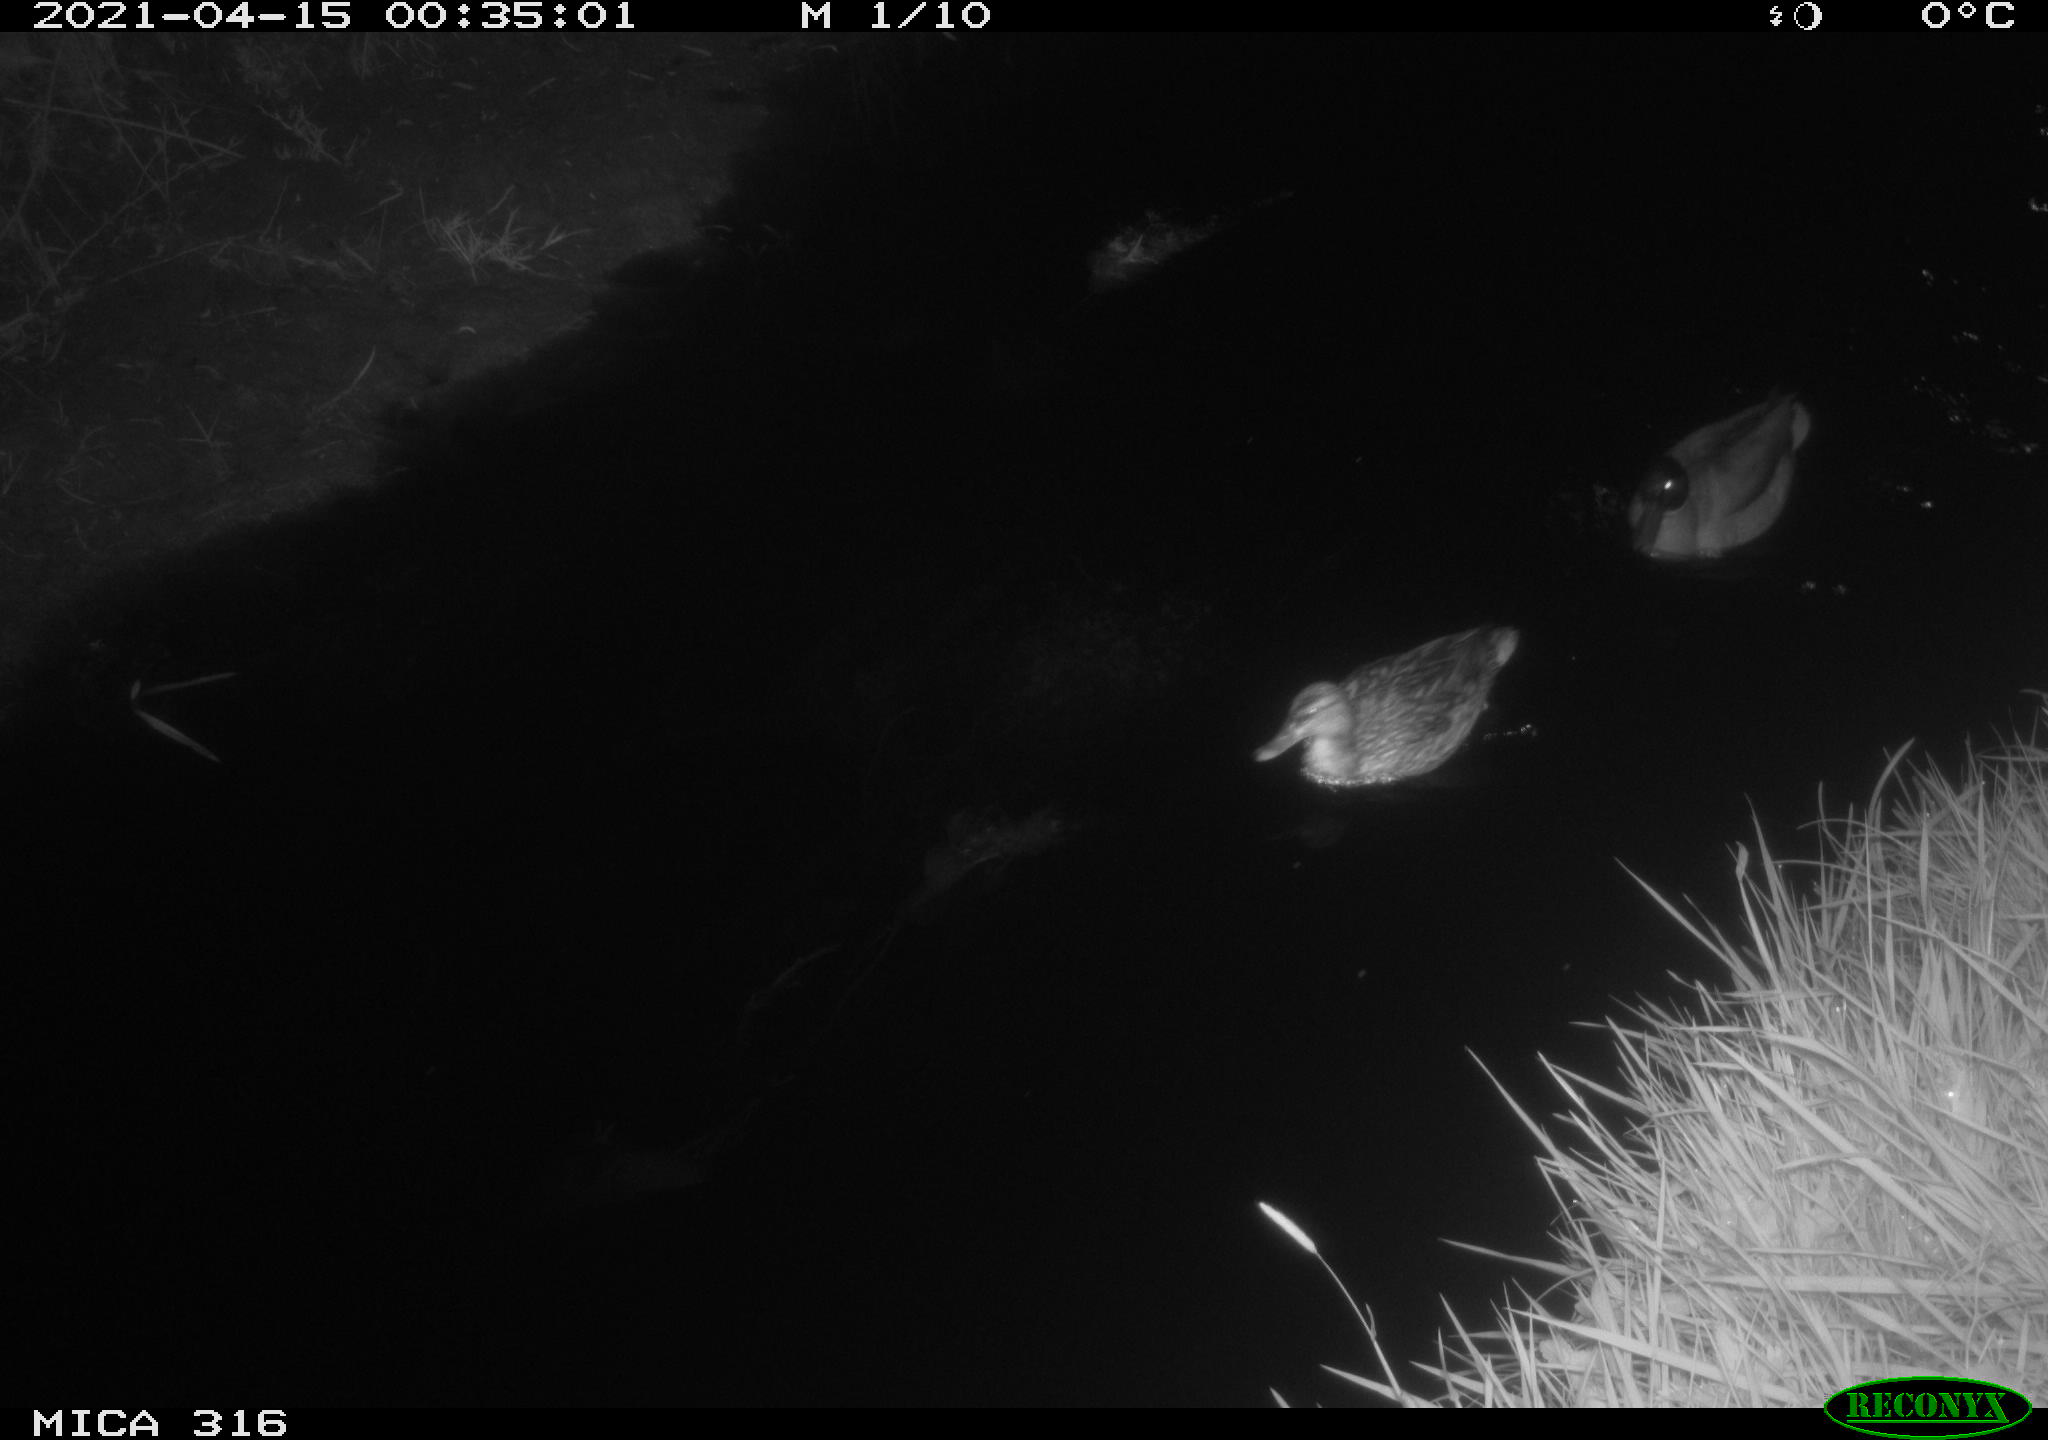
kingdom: Animalia
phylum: Chordata
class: Aves
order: Anseriformes
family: Anatidae
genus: Anas
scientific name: Anas platyrhynchos
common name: Mallard
